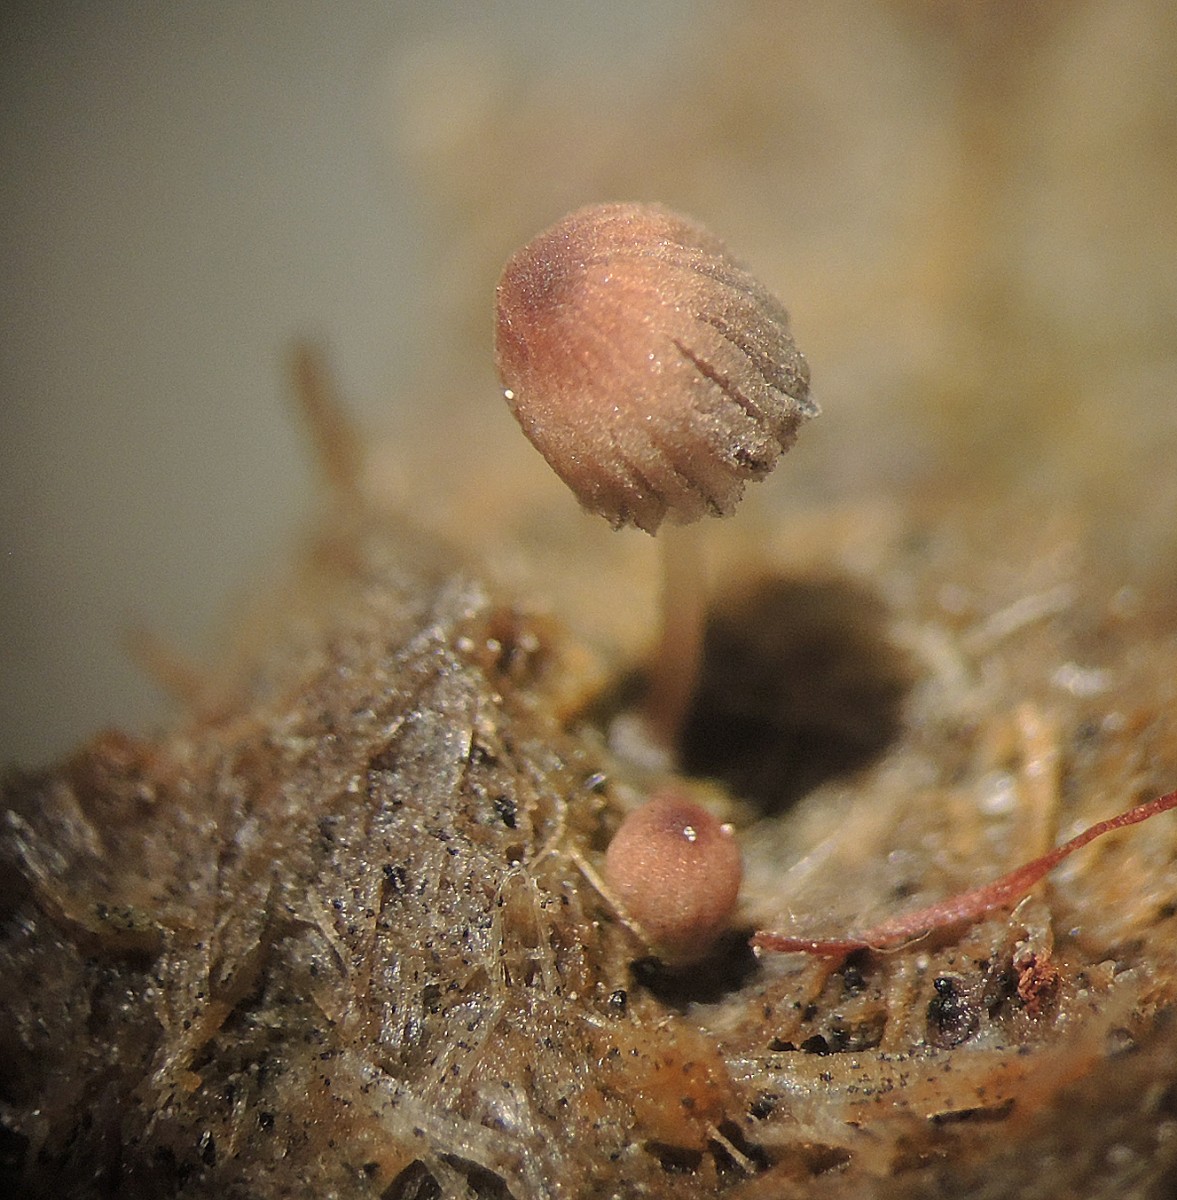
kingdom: Fungi
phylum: Basidiomycota
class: Agaricomycetes
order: Agaricales
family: Psathyrellaceae
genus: Parasola
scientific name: Parasola misera
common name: lillebitte hjulhat
